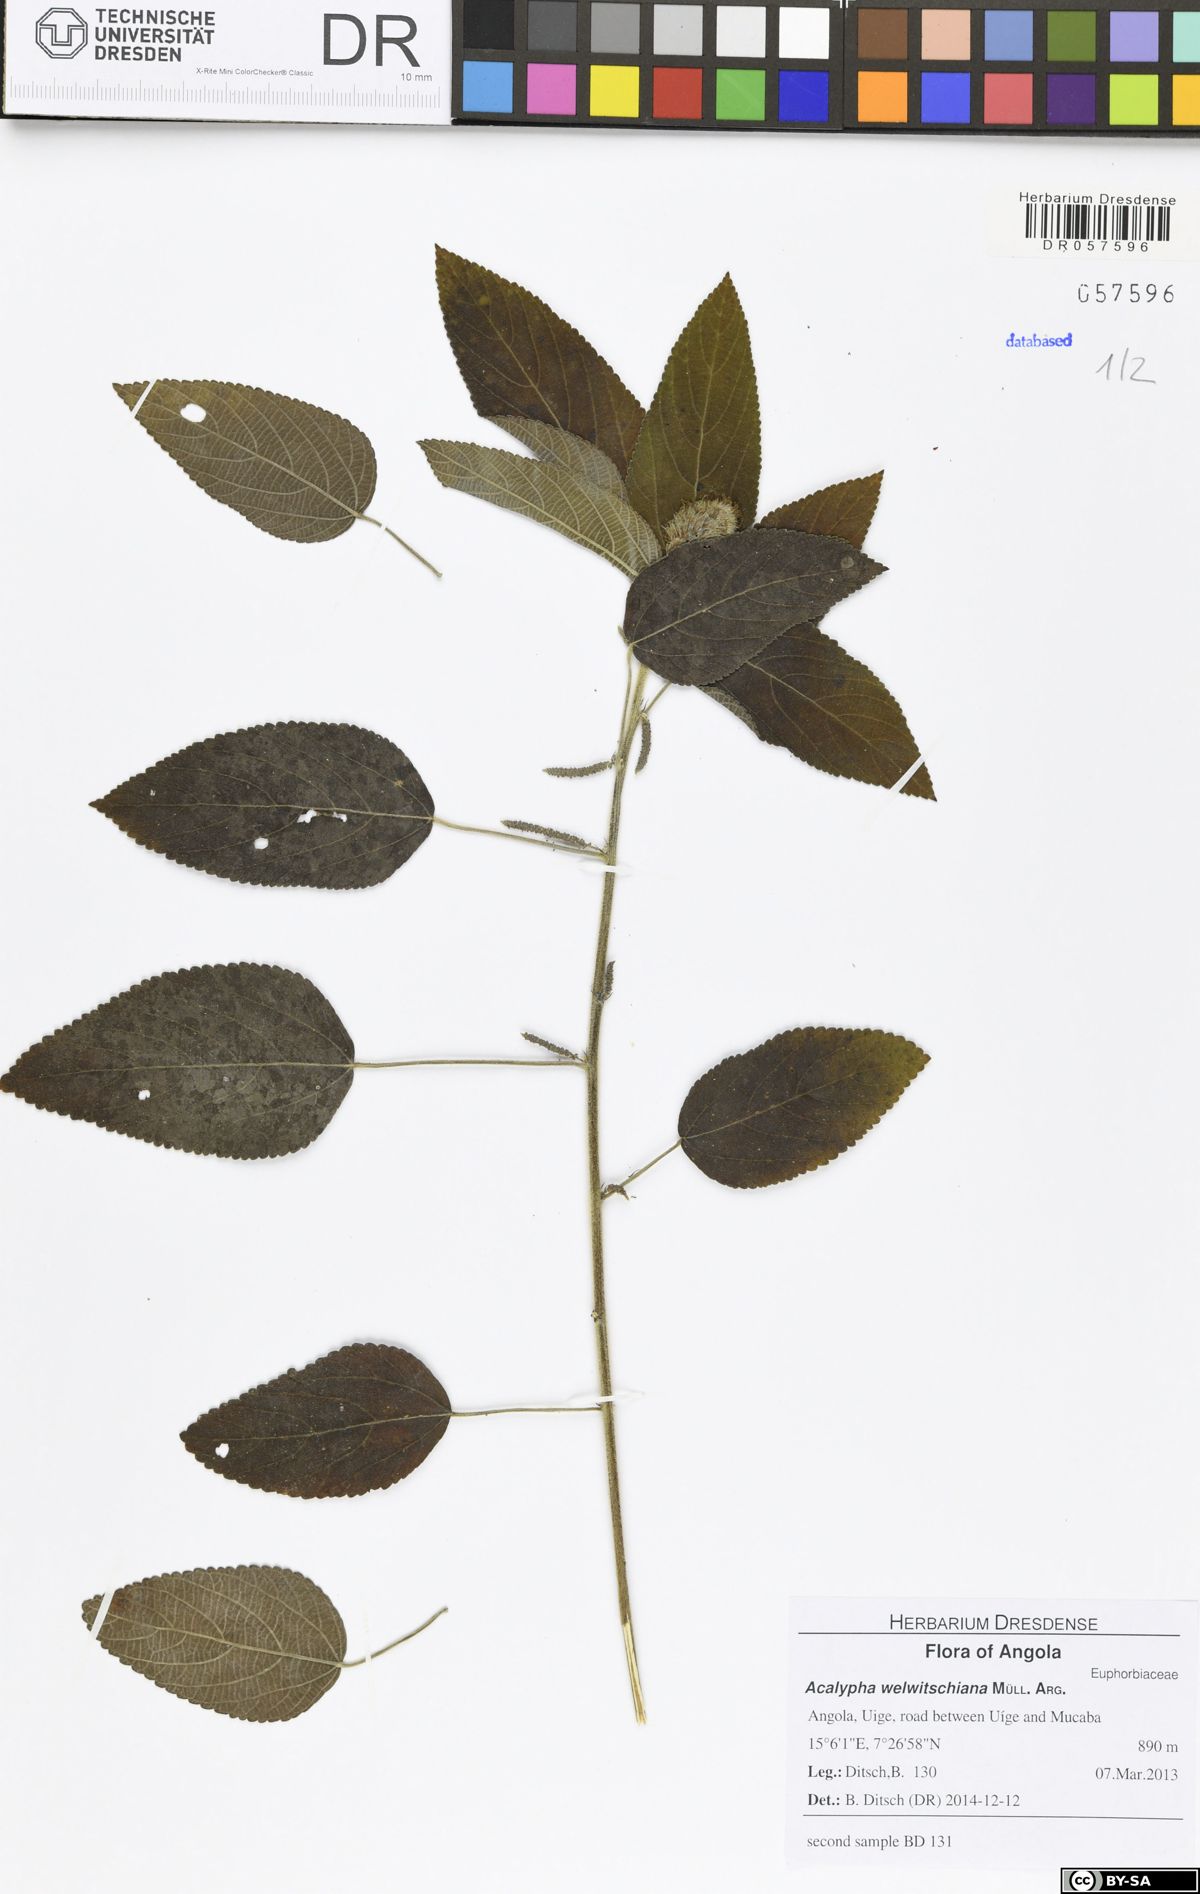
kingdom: Plantae
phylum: Tracheophyta
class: Magnoliopsida
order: Malpighiales
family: Euphorbiaceae
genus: Acalypha
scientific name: Acalypha welwitschiana
